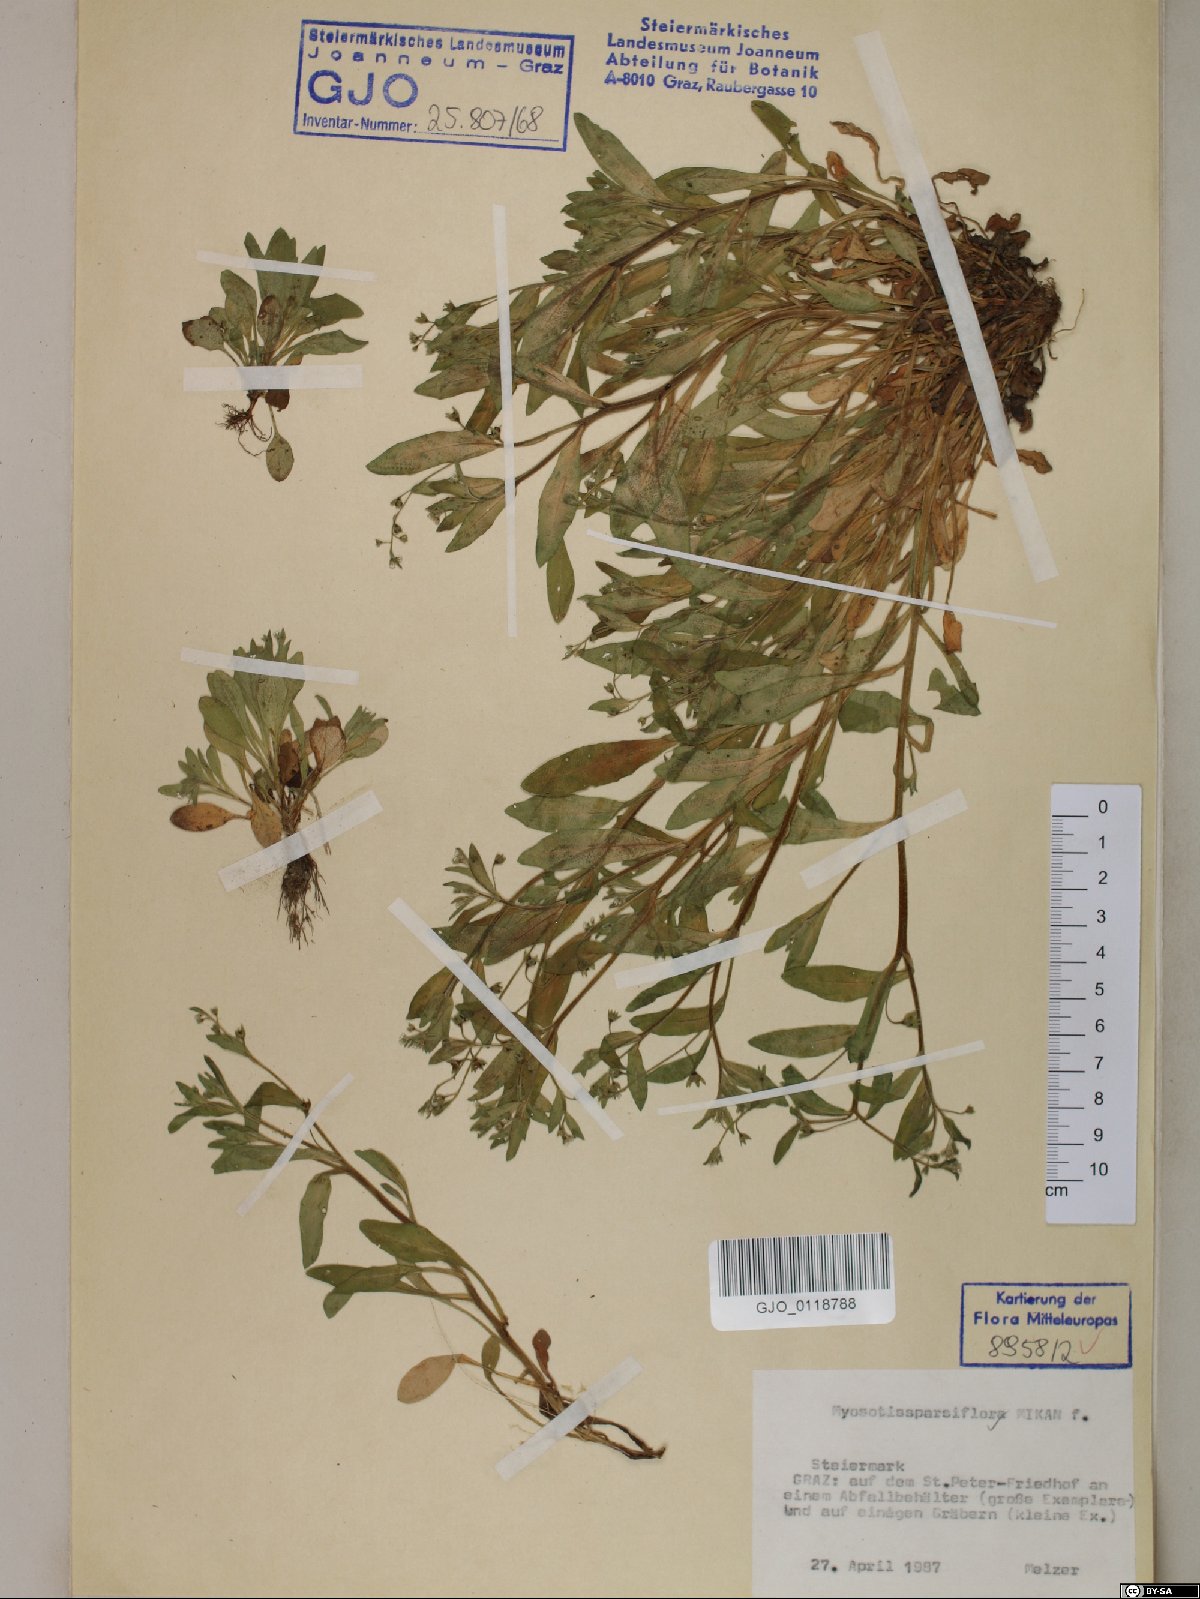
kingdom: Plantae
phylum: Tracheophyta
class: Magnoliopsida
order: Boraginales
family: Boraginaceae
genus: Myosotis
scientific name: Myosotis sparsiflora
